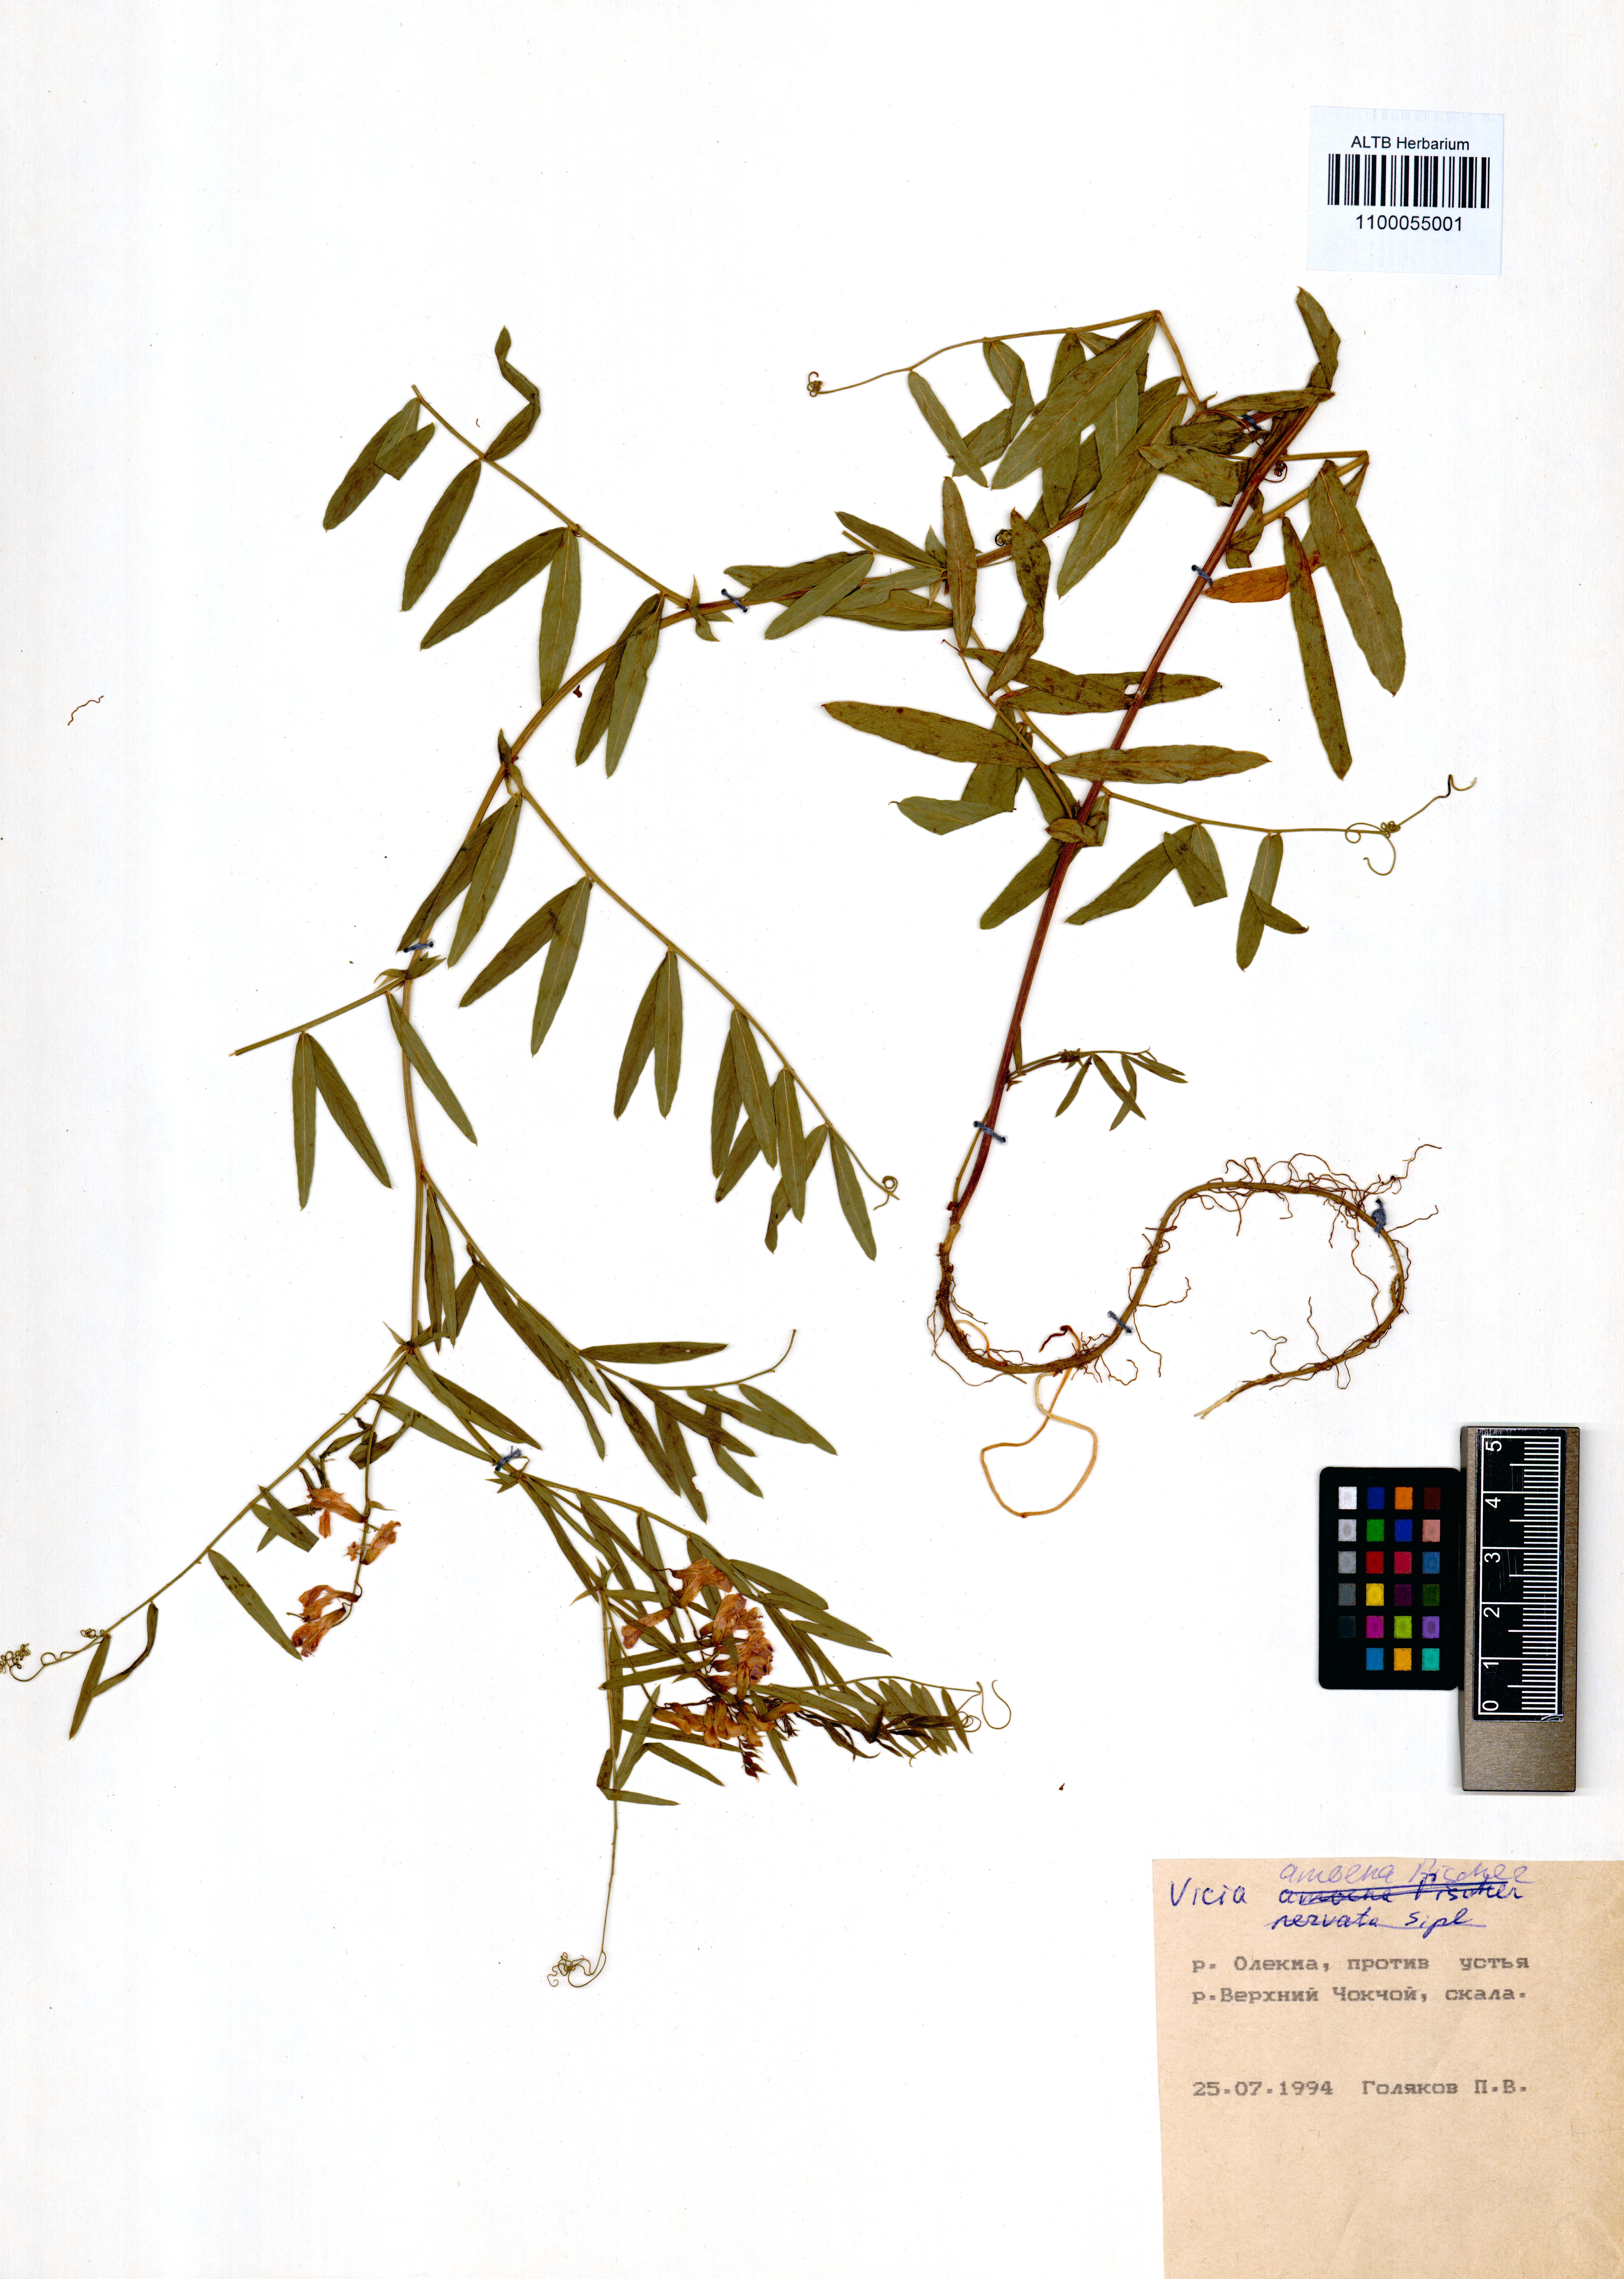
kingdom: Plantae
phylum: Tracheophyta
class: Magnoliopsida
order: Fabales
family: Fabaceae
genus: Vicia
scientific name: Vicia amoena
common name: Cheder ebs
